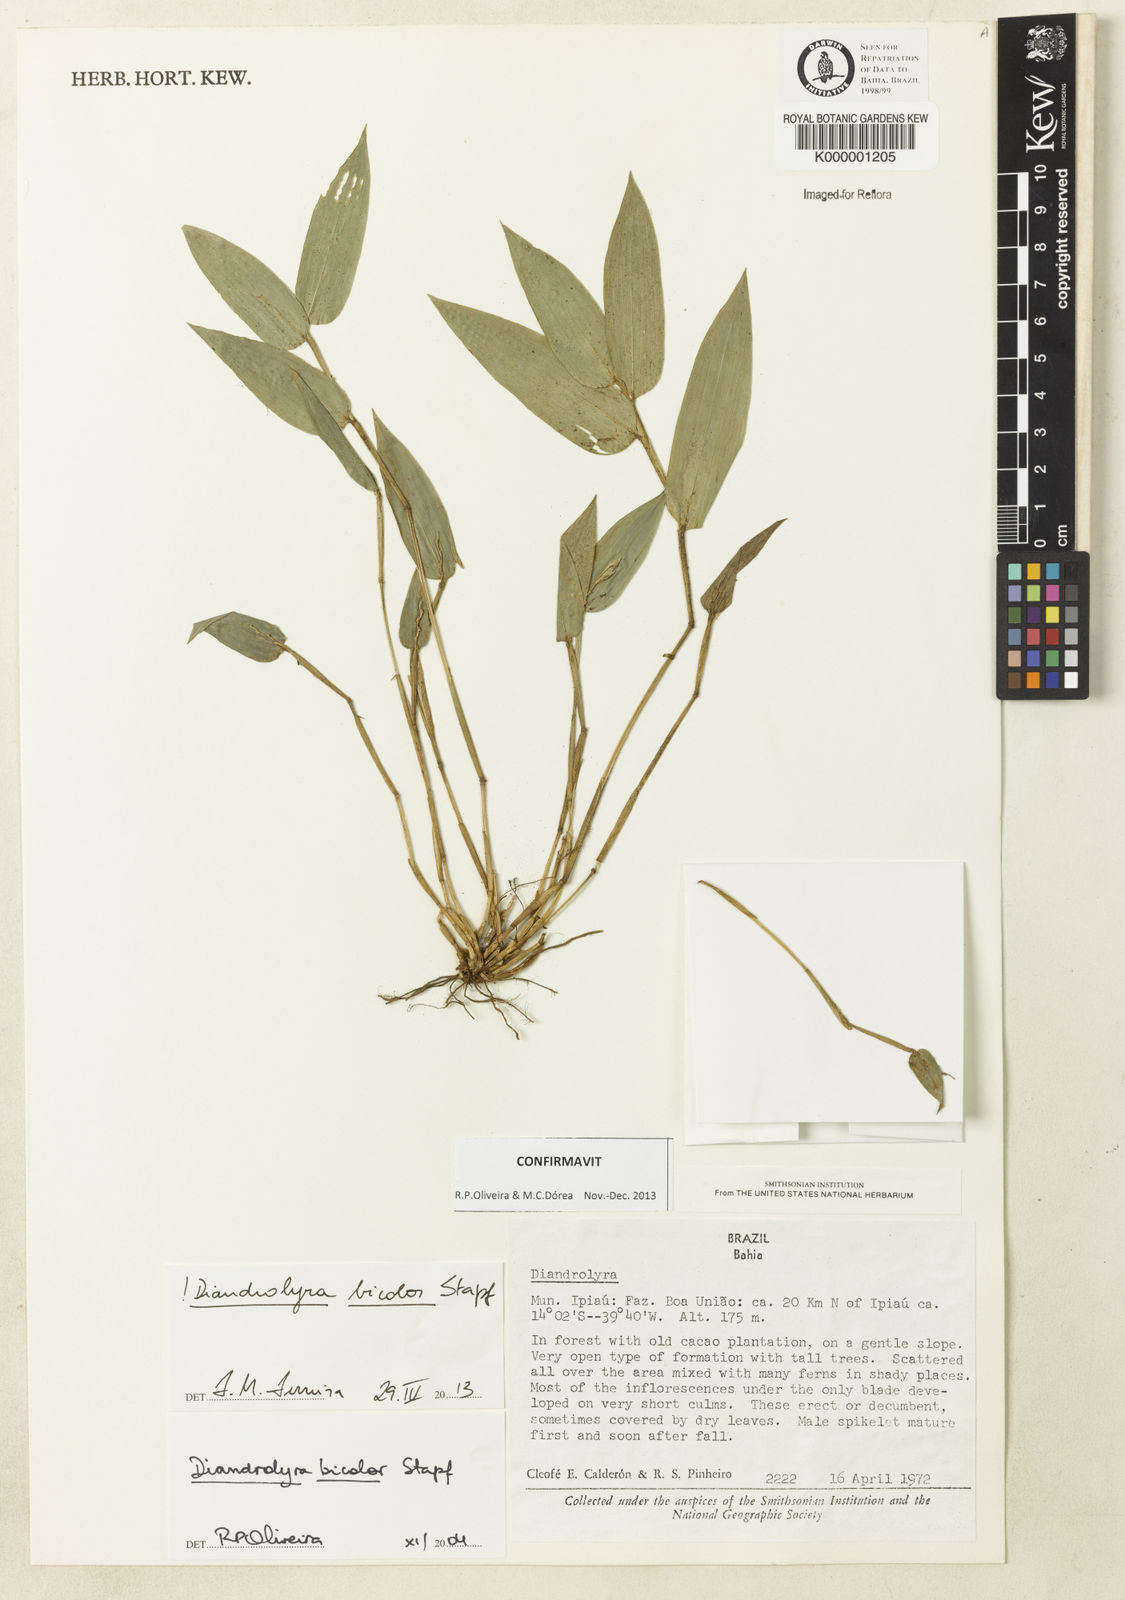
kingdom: Plantae
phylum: Tracheophyta
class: Liliopsida
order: Poales
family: Poaceae
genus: Diandrolyra
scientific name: Diandrolyra
